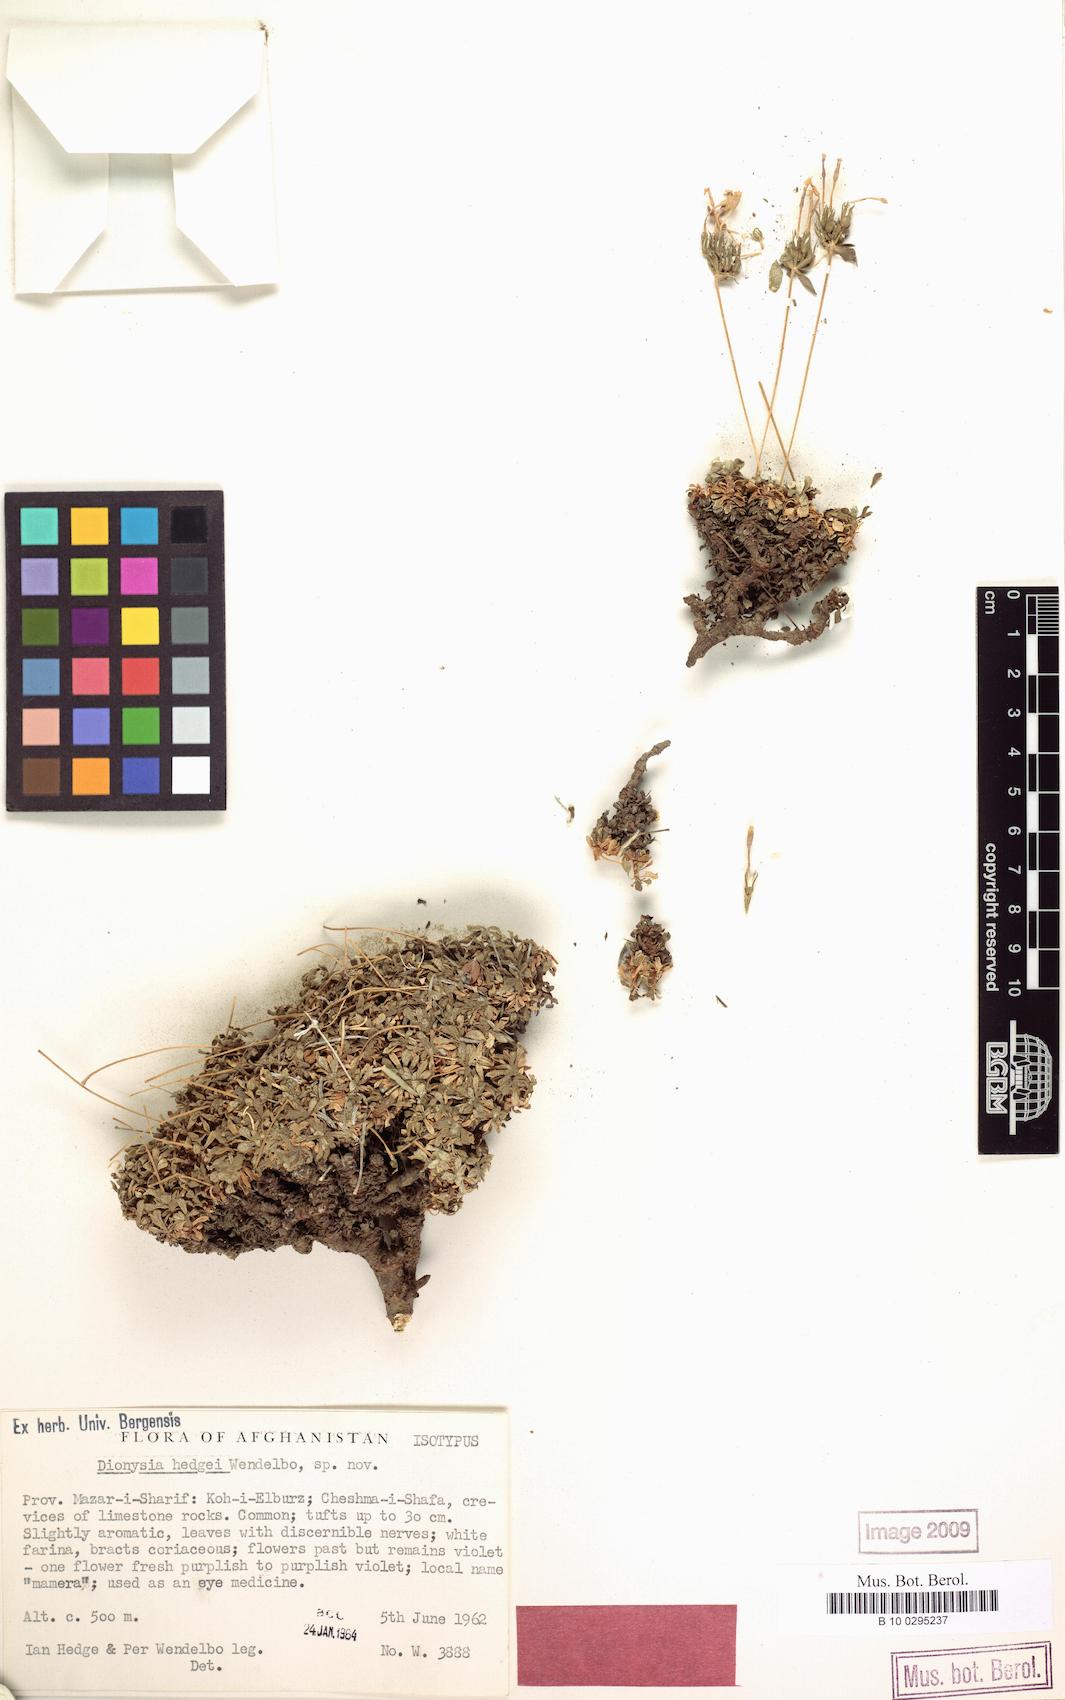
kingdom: Plantae
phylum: Tracheophyta
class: Magnoliopsida
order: Ericales
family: Primulaceae
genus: Dionysia
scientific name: Dionysia hedgei
